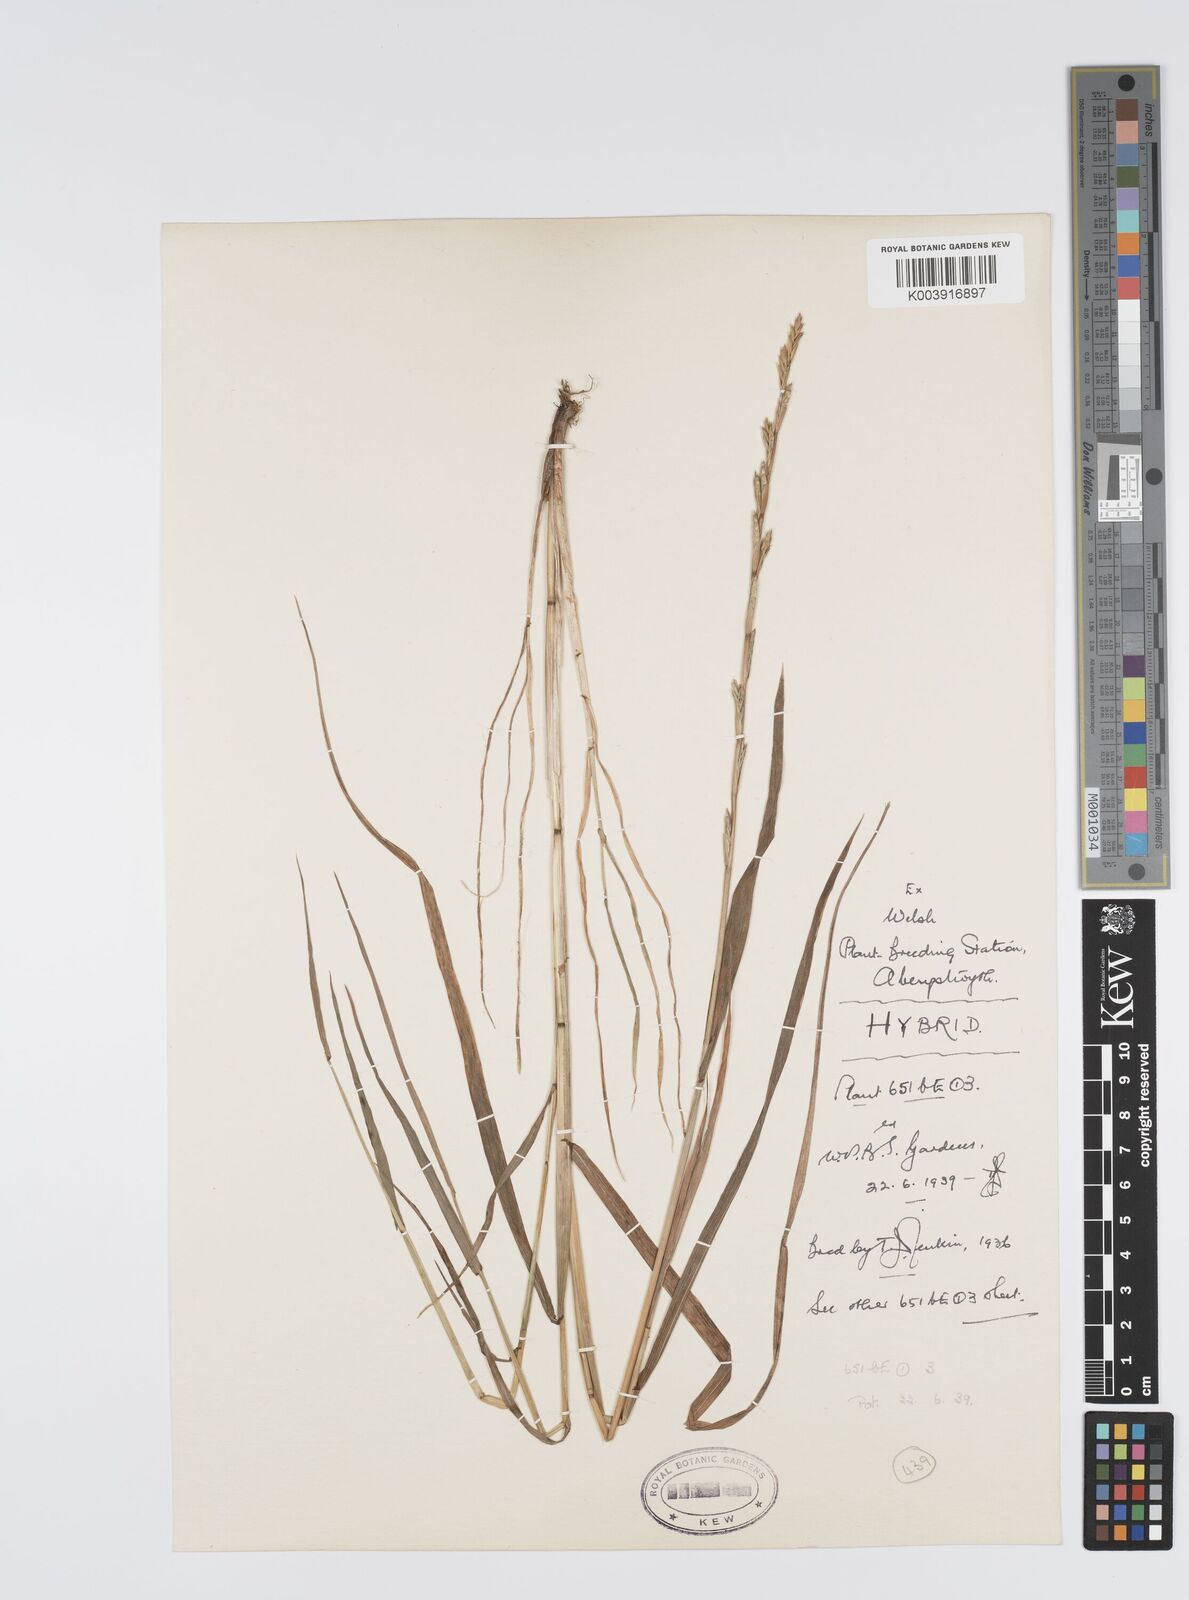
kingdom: Plantae
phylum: Tracheophyta
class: Liliopsida
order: Poales
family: Poaceae
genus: Lolium
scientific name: Lolium multiflorum
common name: Annual ryegrass
